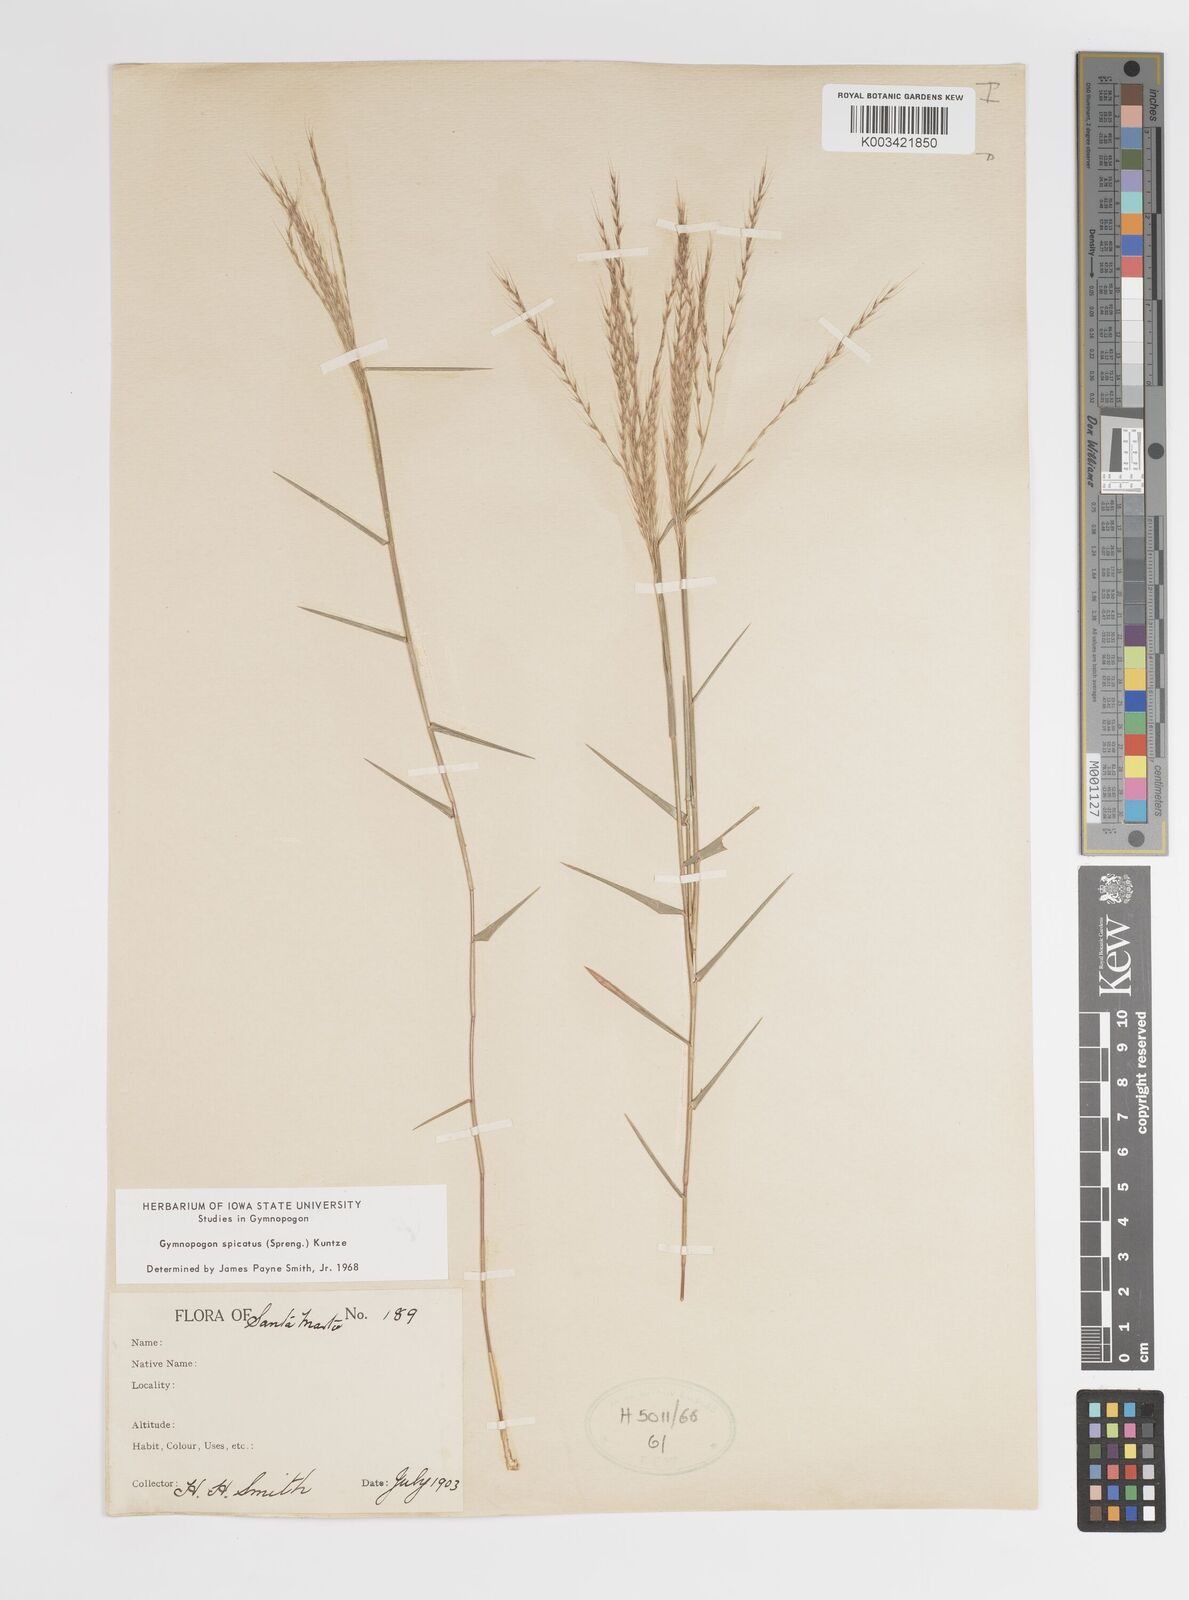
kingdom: Plantae
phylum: Tracheophyta
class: Liliopsida
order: Poales
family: Poaceae
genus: Gymnopogon
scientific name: Gymnopogon spicatus
